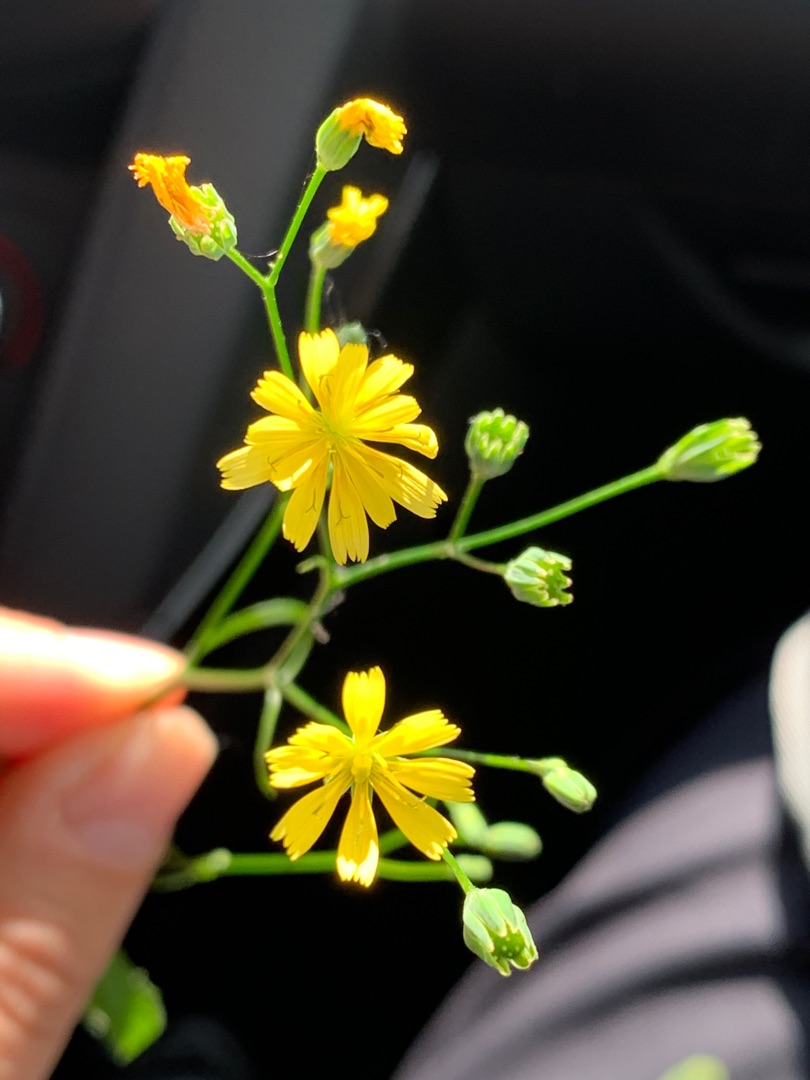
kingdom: Plantae
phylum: Tracheophyta
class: Magnoliopsida
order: Asterales
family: Asteraceae
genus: Lapsana
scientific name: Lapsana communis
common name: Haremad
